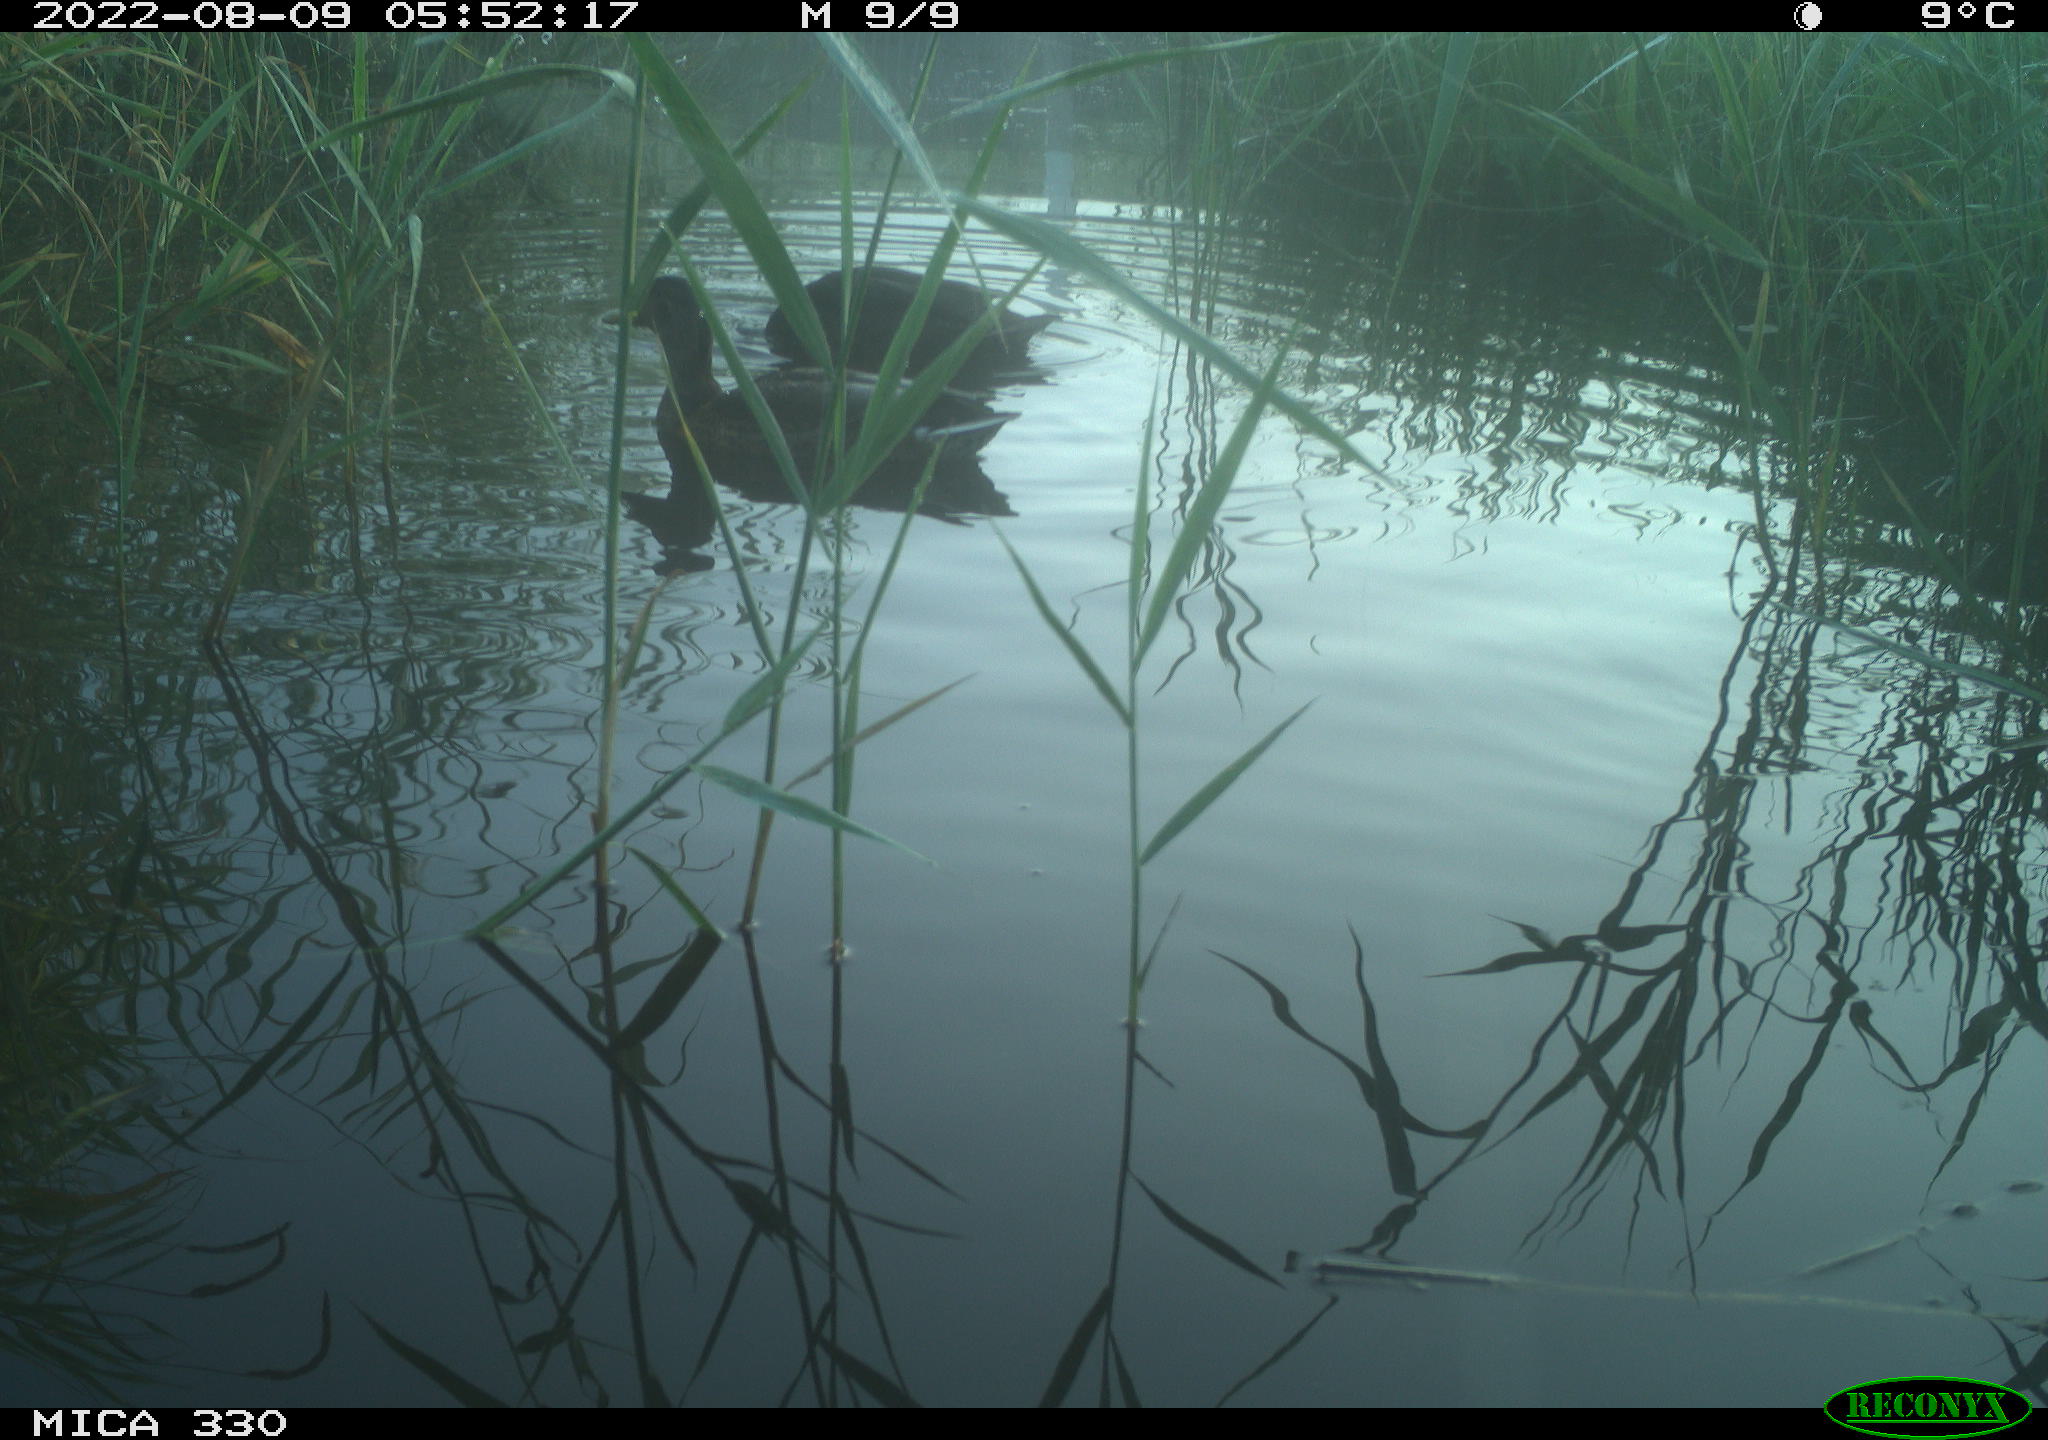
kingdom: Animalia
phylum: Chordata
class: Aves
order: Gruiformes
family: Rallidae
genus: Gallinula
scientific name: Gallinula chloropus
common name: Common moorhen
